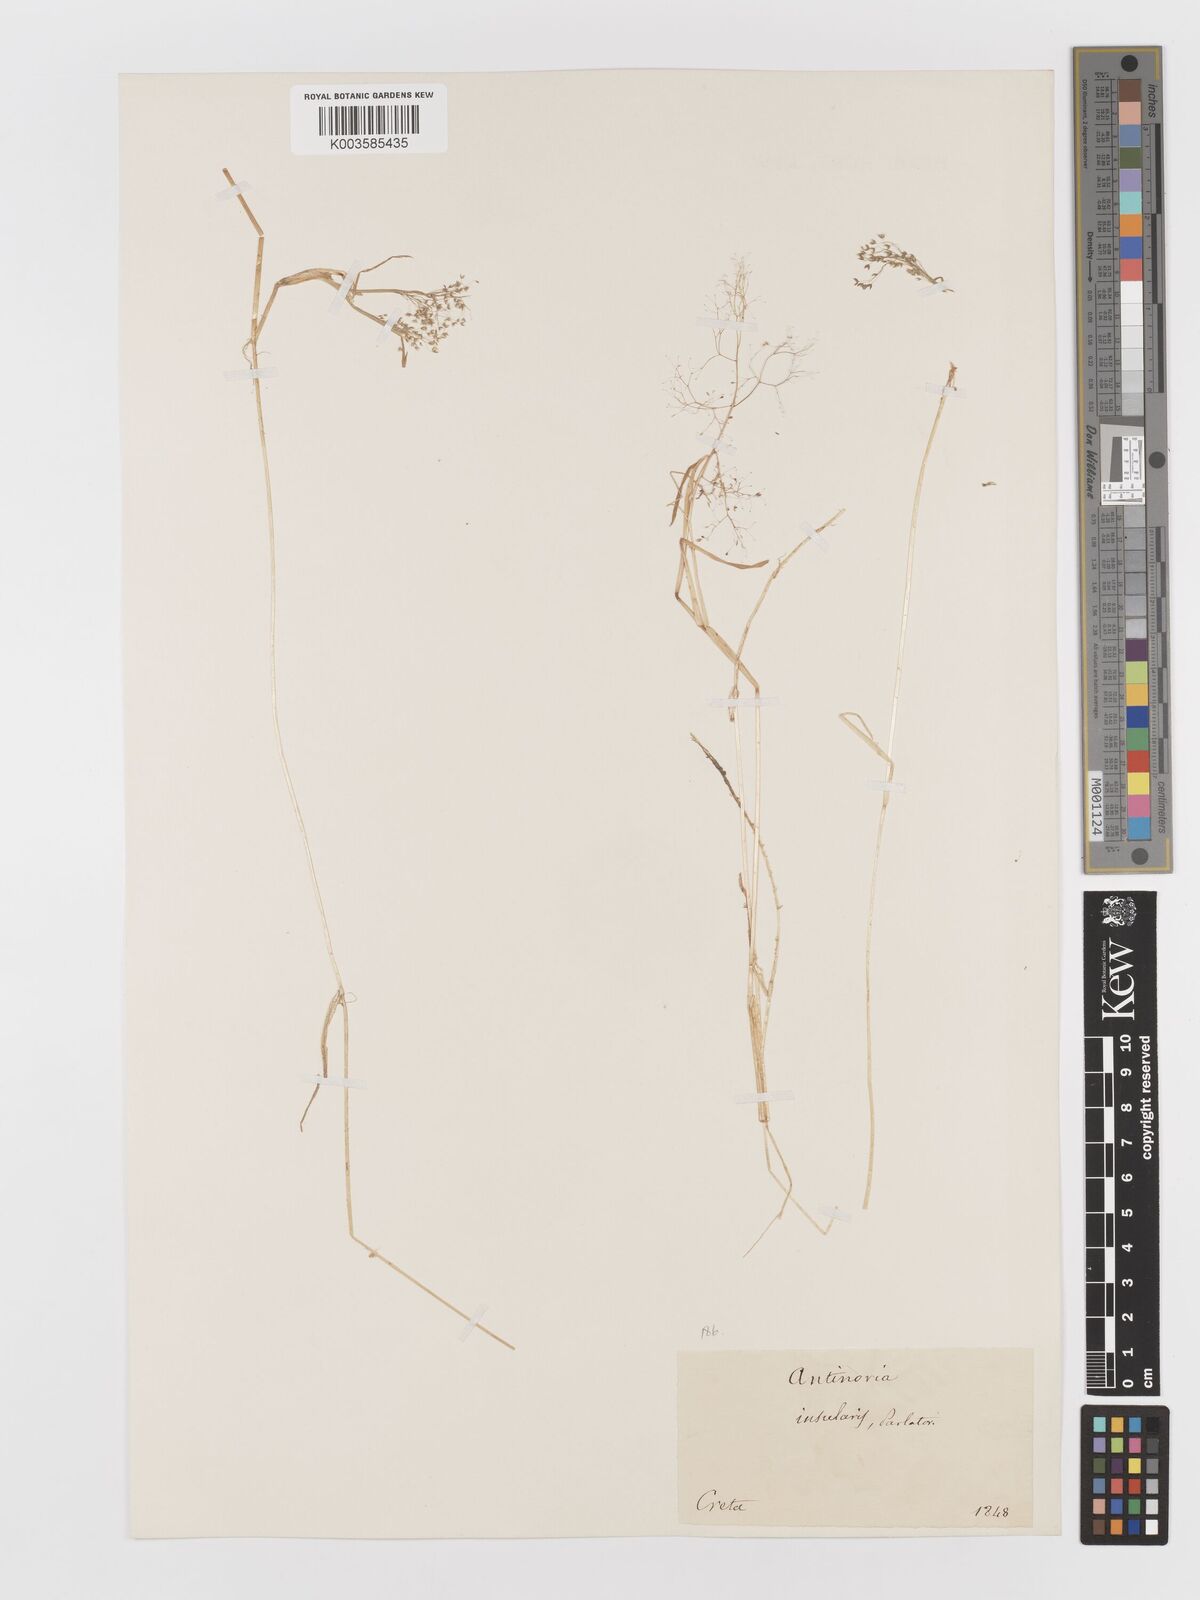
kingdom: Plantae
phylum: Tracheophyta
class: Liliopsida
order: Poales
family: Poaceae
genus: Antinoria
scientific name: Antinoria insularis
